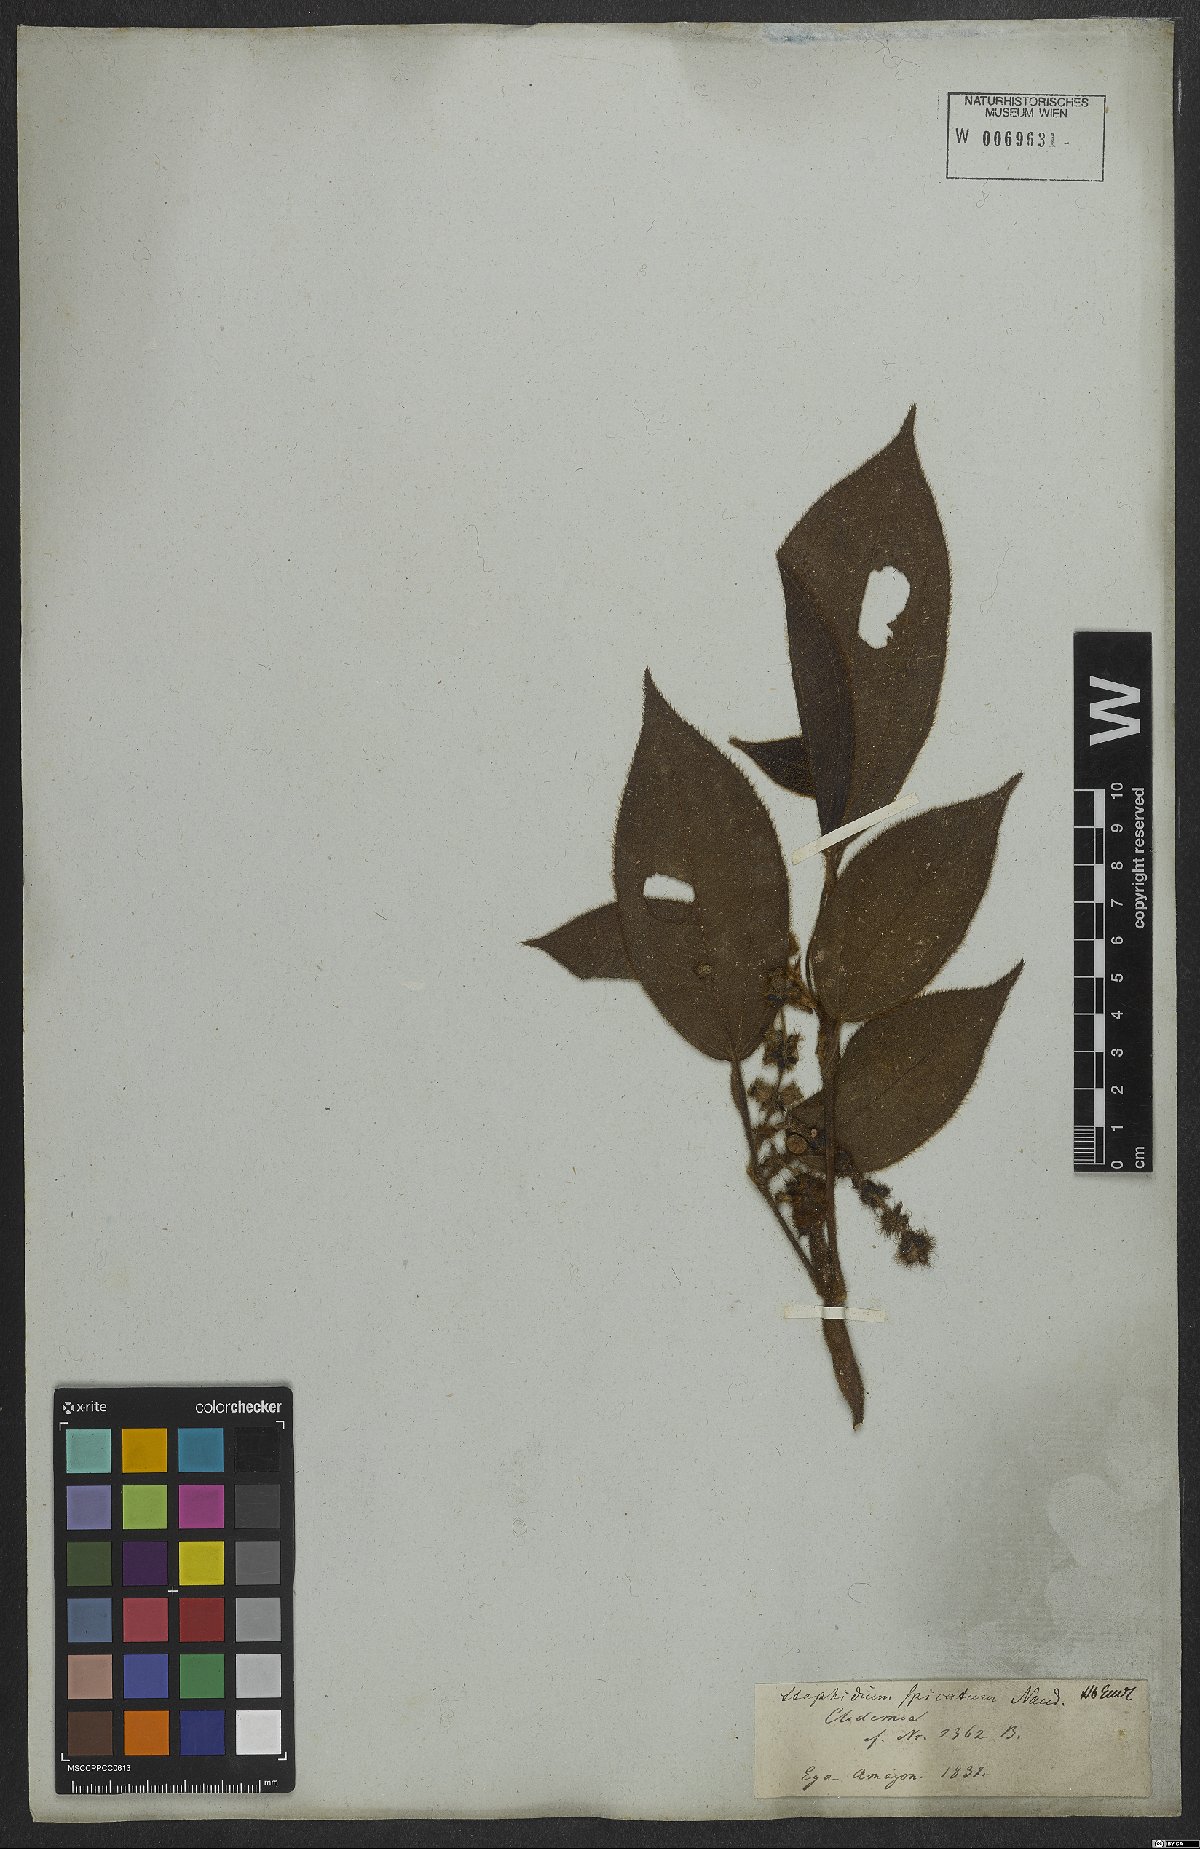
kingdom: Plantae
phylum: Tracheophyta
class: Magnoliopsida
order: Myrtales
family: Melastomataceae
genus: Miconia
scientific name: Miconia dependens
